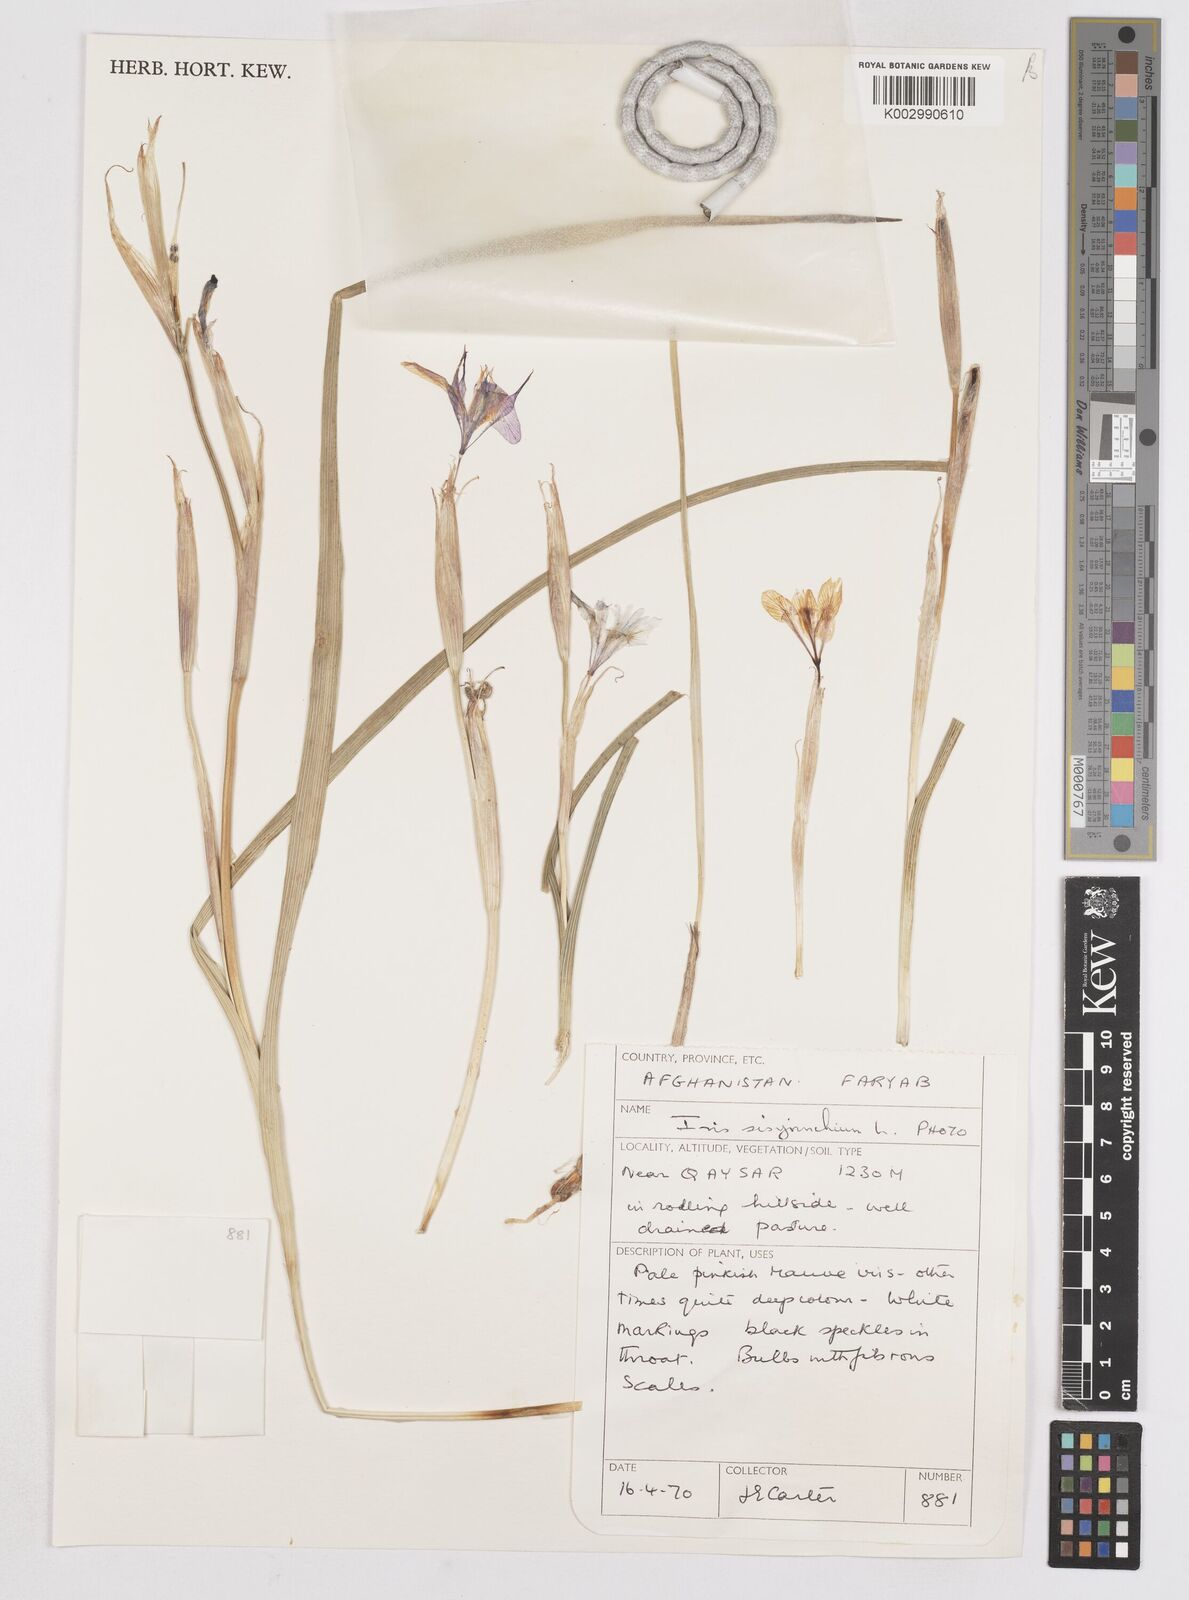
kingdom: Plantae
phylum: Tracheophyta
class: Liliopsida
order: Asparagales
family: Iridaceae
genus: Moraea
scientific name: Moraea sisyrinchium
